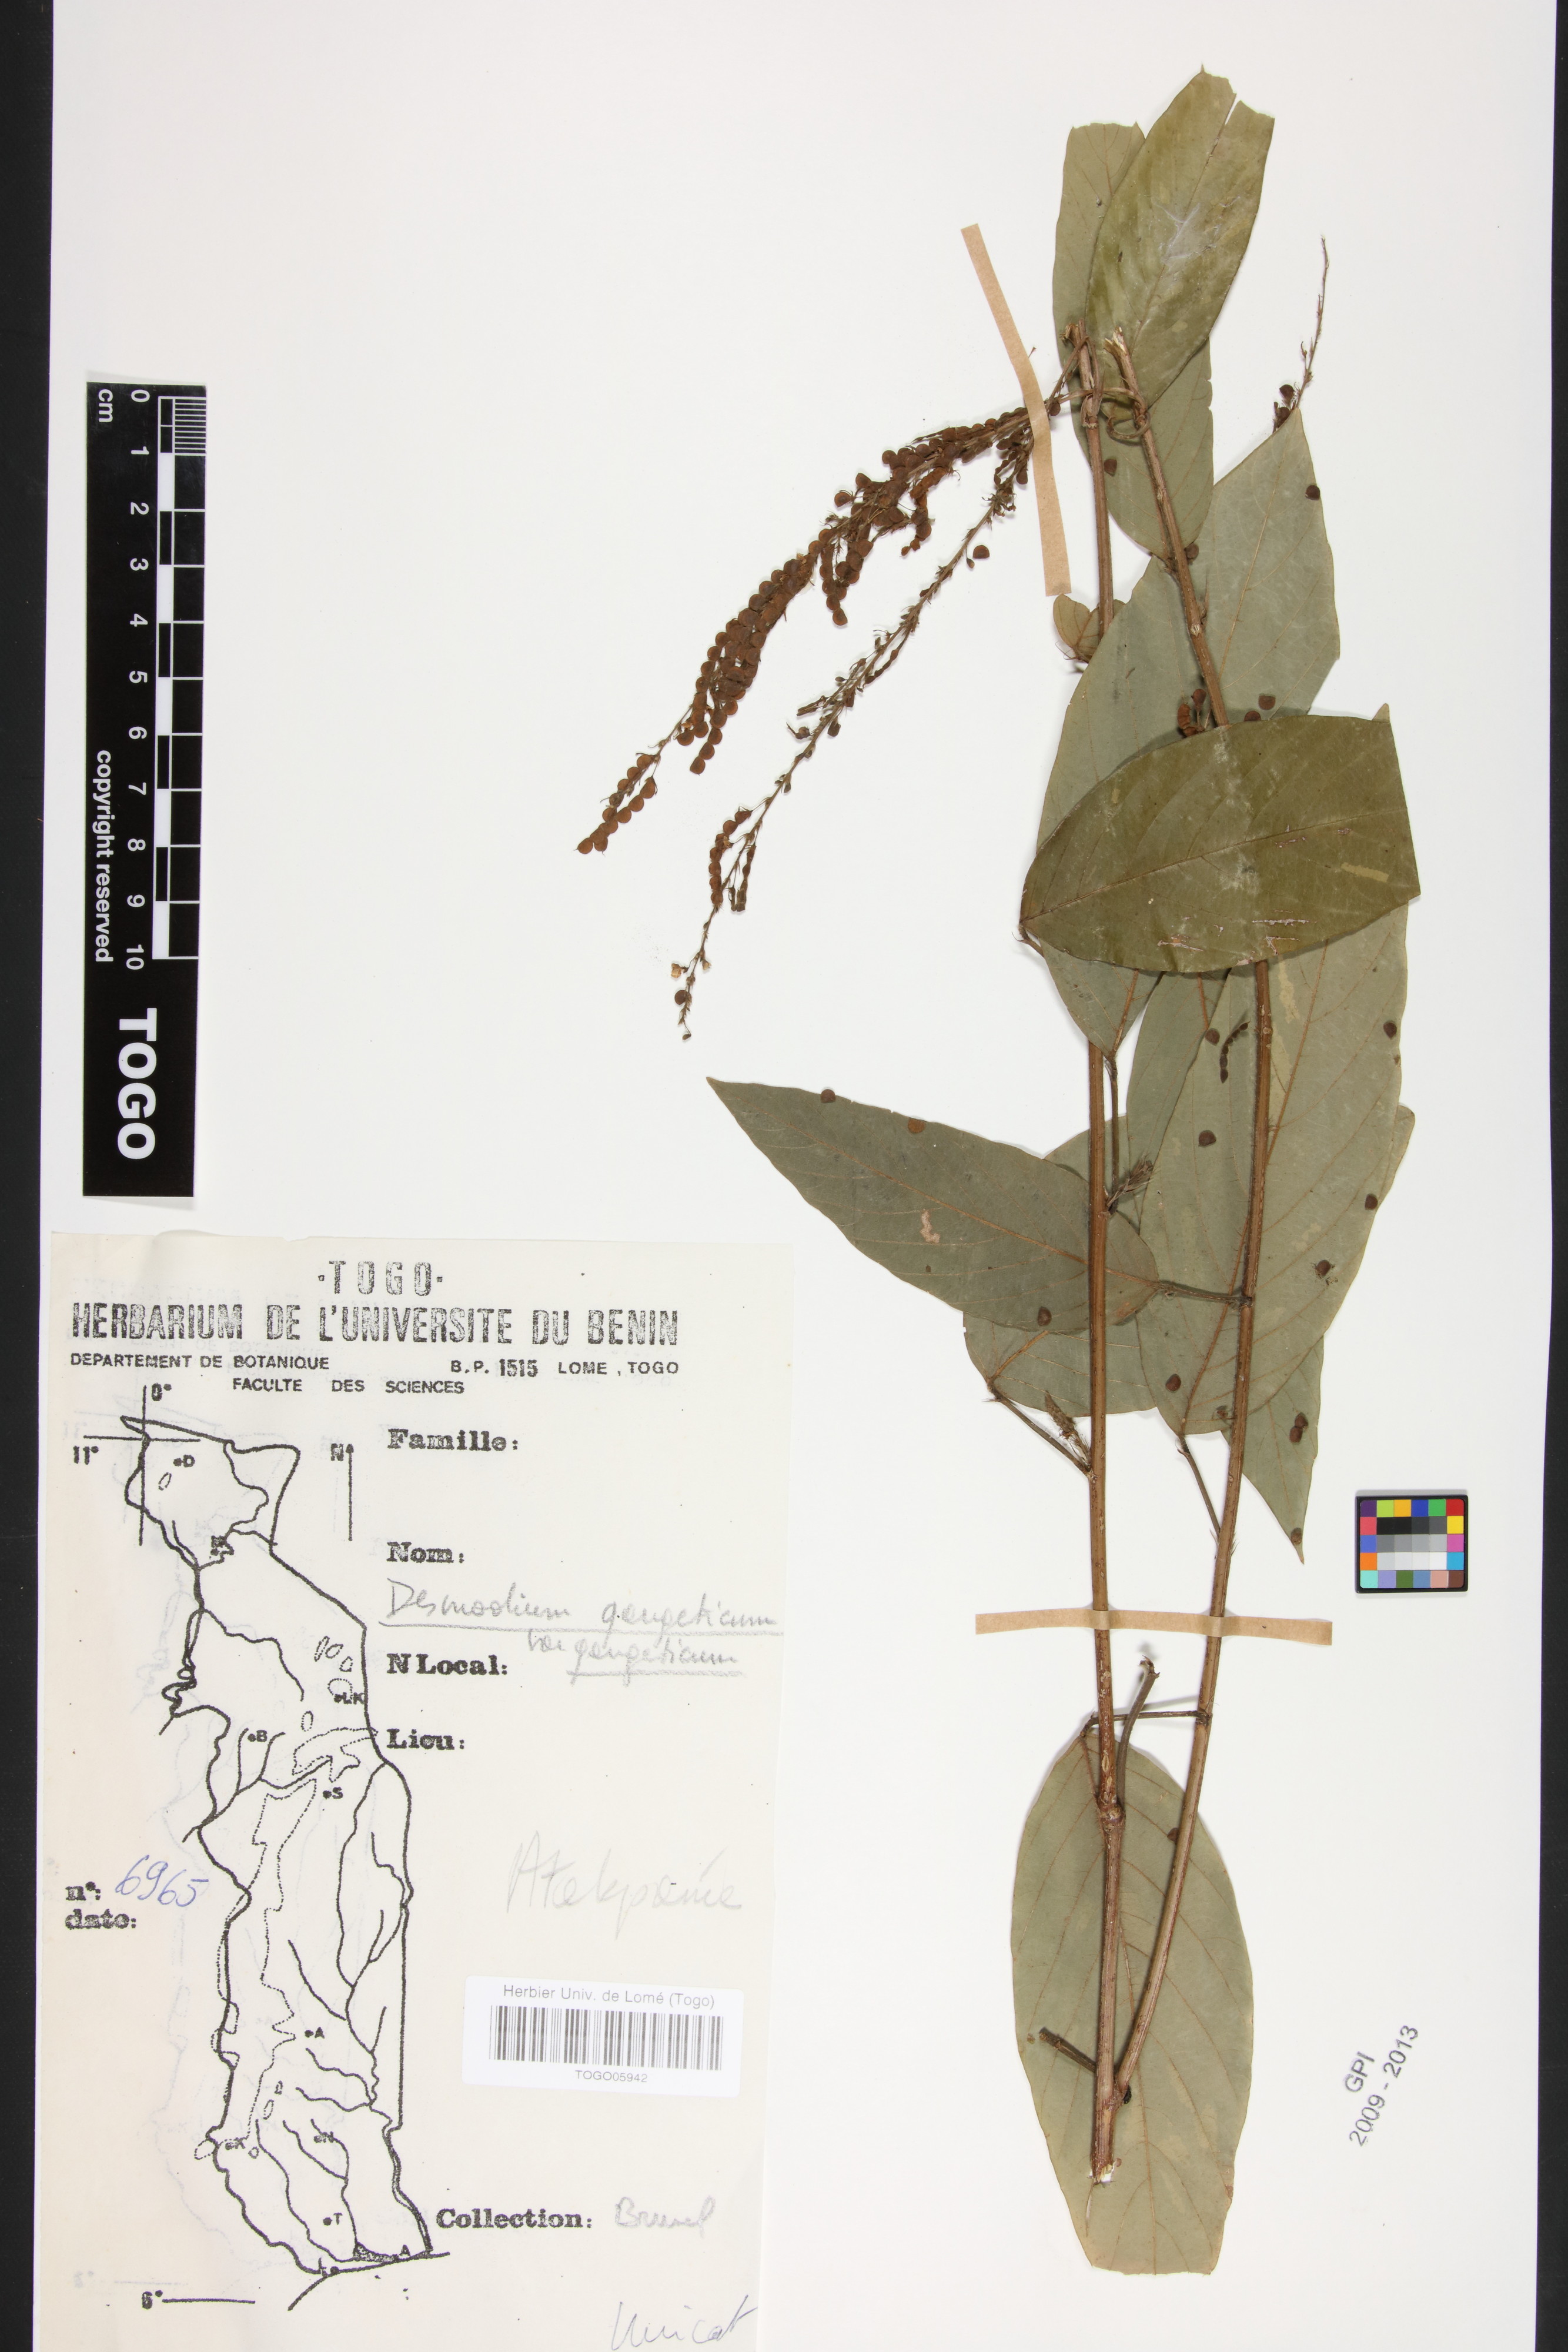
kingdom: Plantae
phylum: Tracheophyta
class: Magnoliopsida
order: Fabales
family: Fabaceae
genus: Pleurolobus
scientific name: Pleurolobus gangeticus
